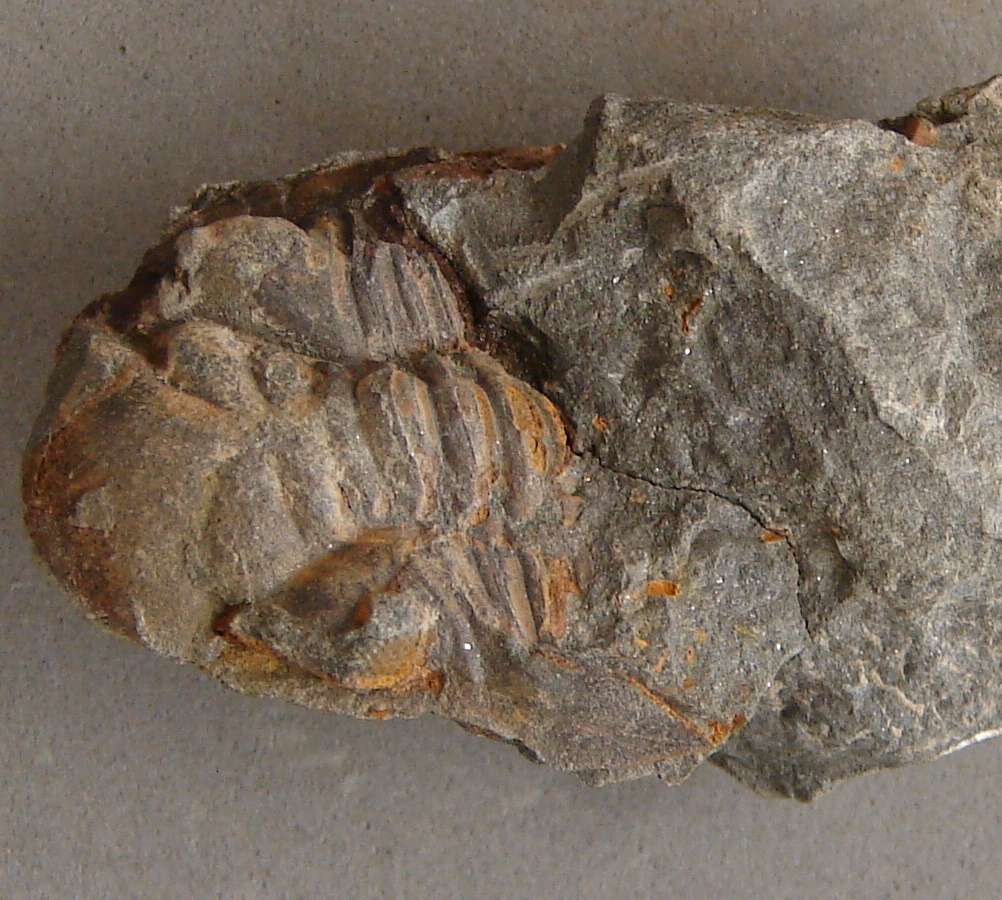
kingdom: Animalia
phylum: Arthropoda
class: Trilobita
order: Phacopida
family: Acastidae
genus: Kayserops
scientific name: Kayserops daleidensis
